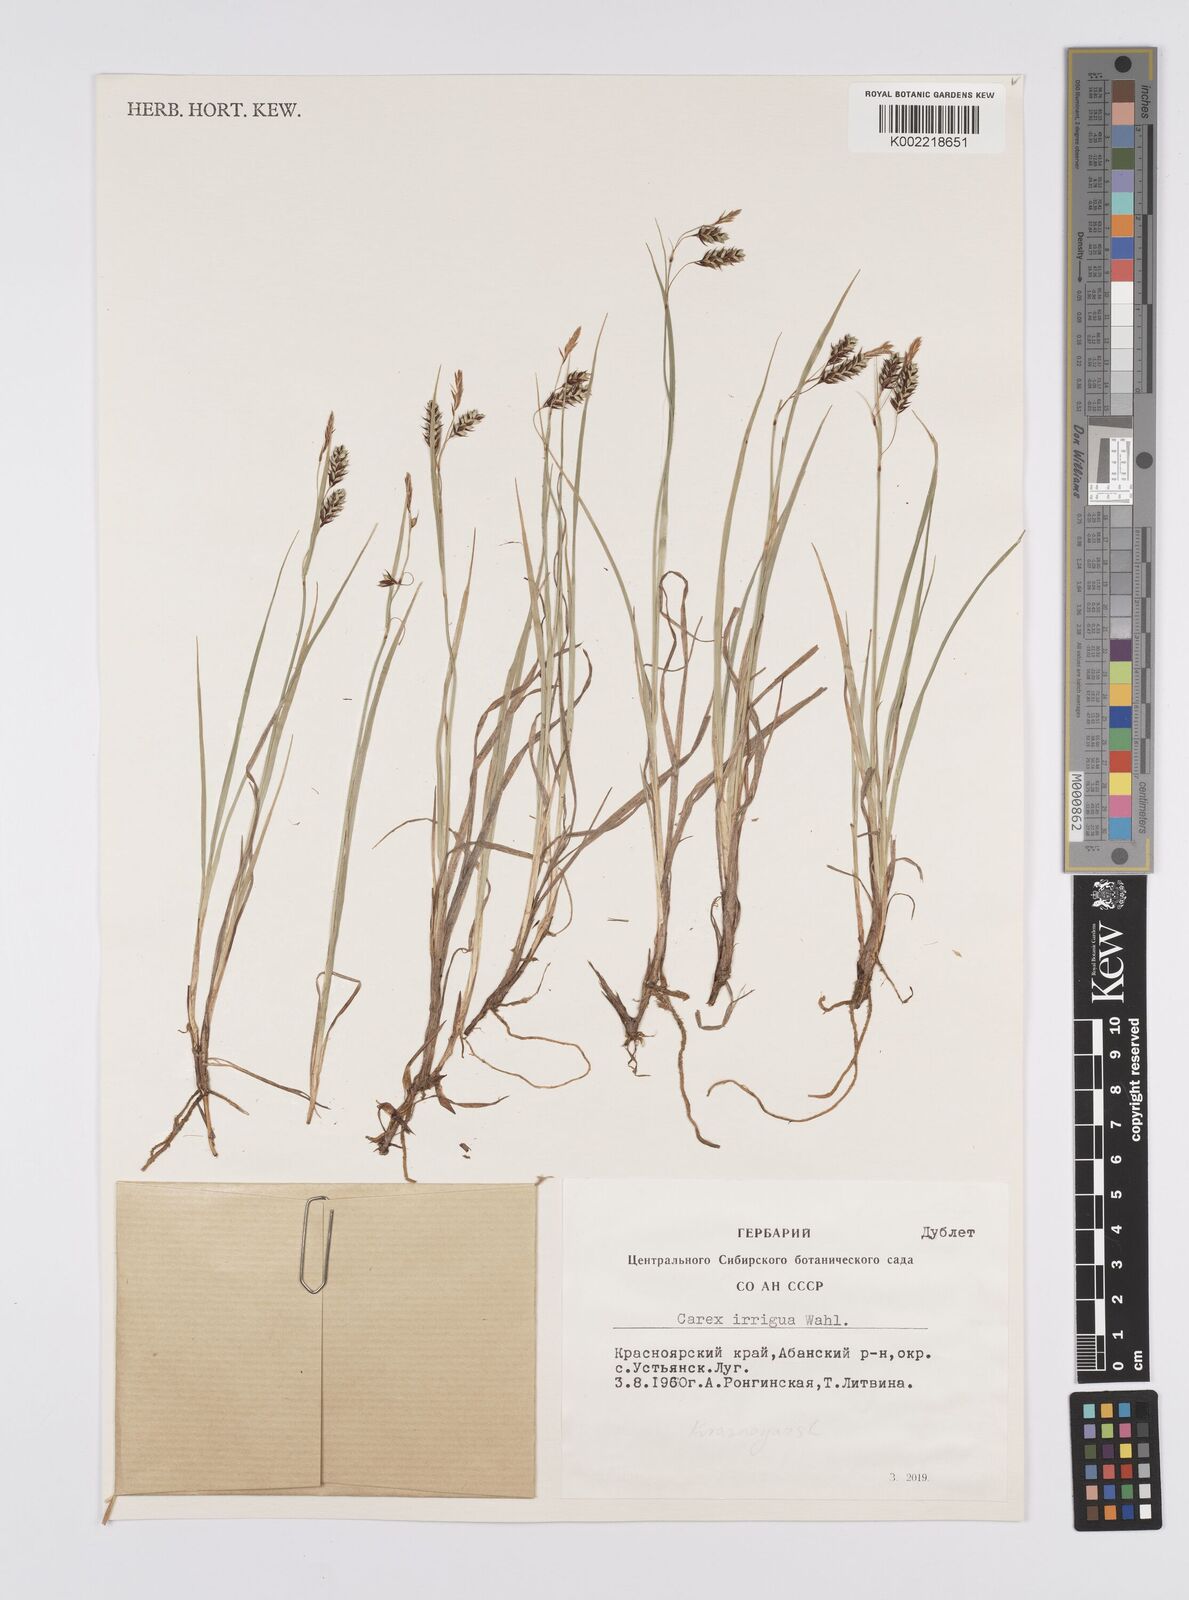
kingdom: Plantae
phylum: Tracheophyta
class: Liliopsida
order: Poales
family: Cyperaceae
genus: Carex
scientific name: Carex magellanica
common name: Bog sedge
